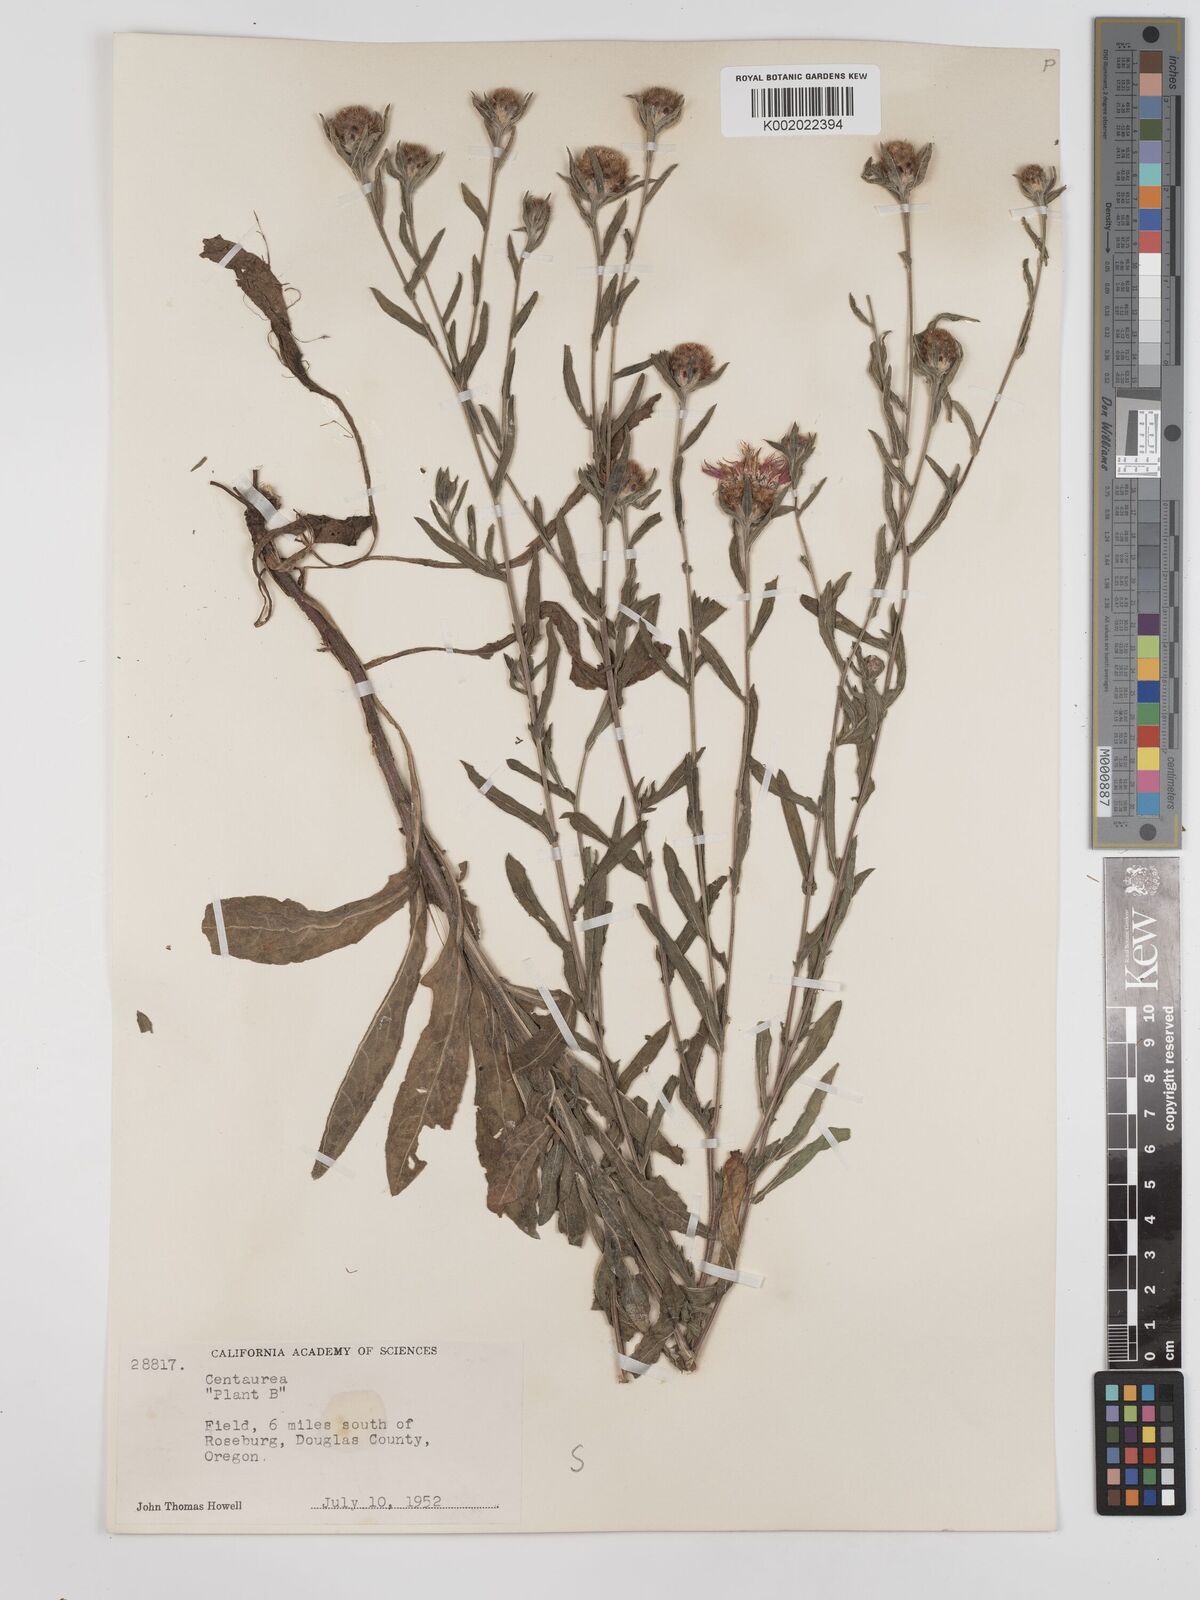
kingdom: Plantae
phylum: Tracheophyta
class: Magnoliopsida
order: Asterales
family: Asteraceae
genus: Centaurea
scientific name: Centaurea jacea
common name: Brown knapweed
